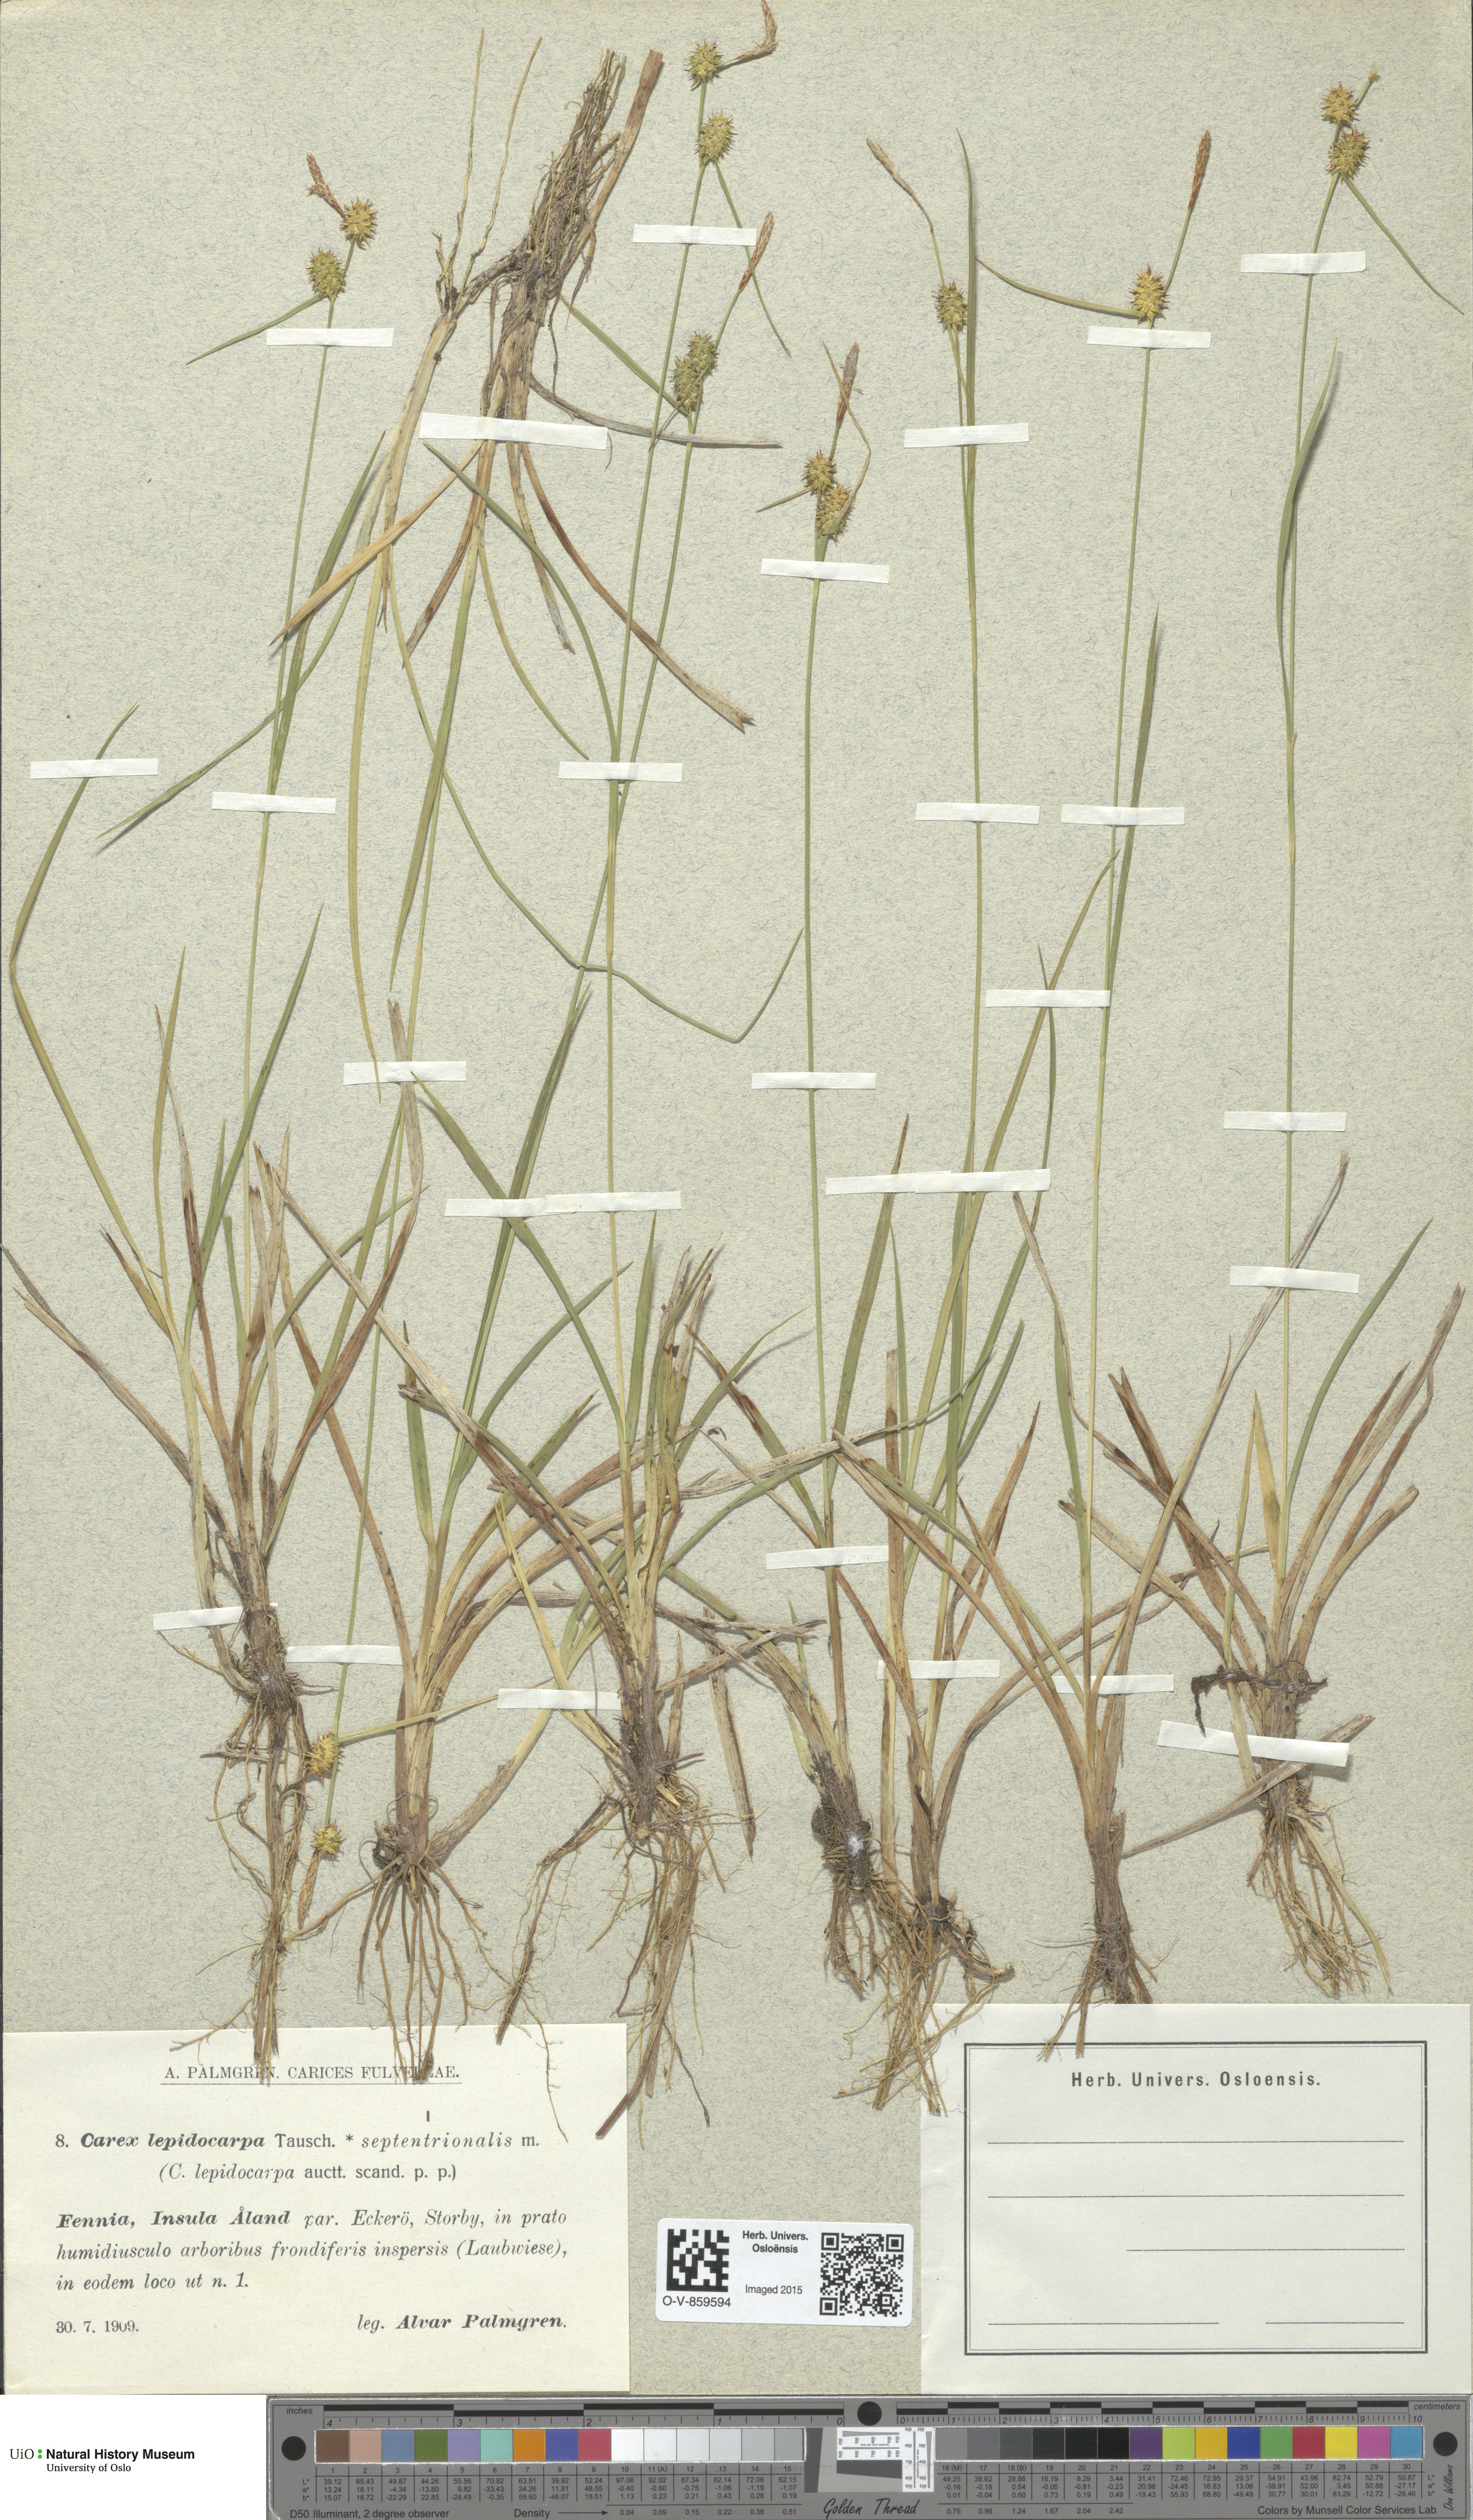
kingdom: Plantae
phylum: Tracheophyta
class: Liliopsida
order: Poales
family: Cyperaceae
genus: Carex
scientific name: Carex lepidocarpa
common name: Long-stalked yellow-sedge
